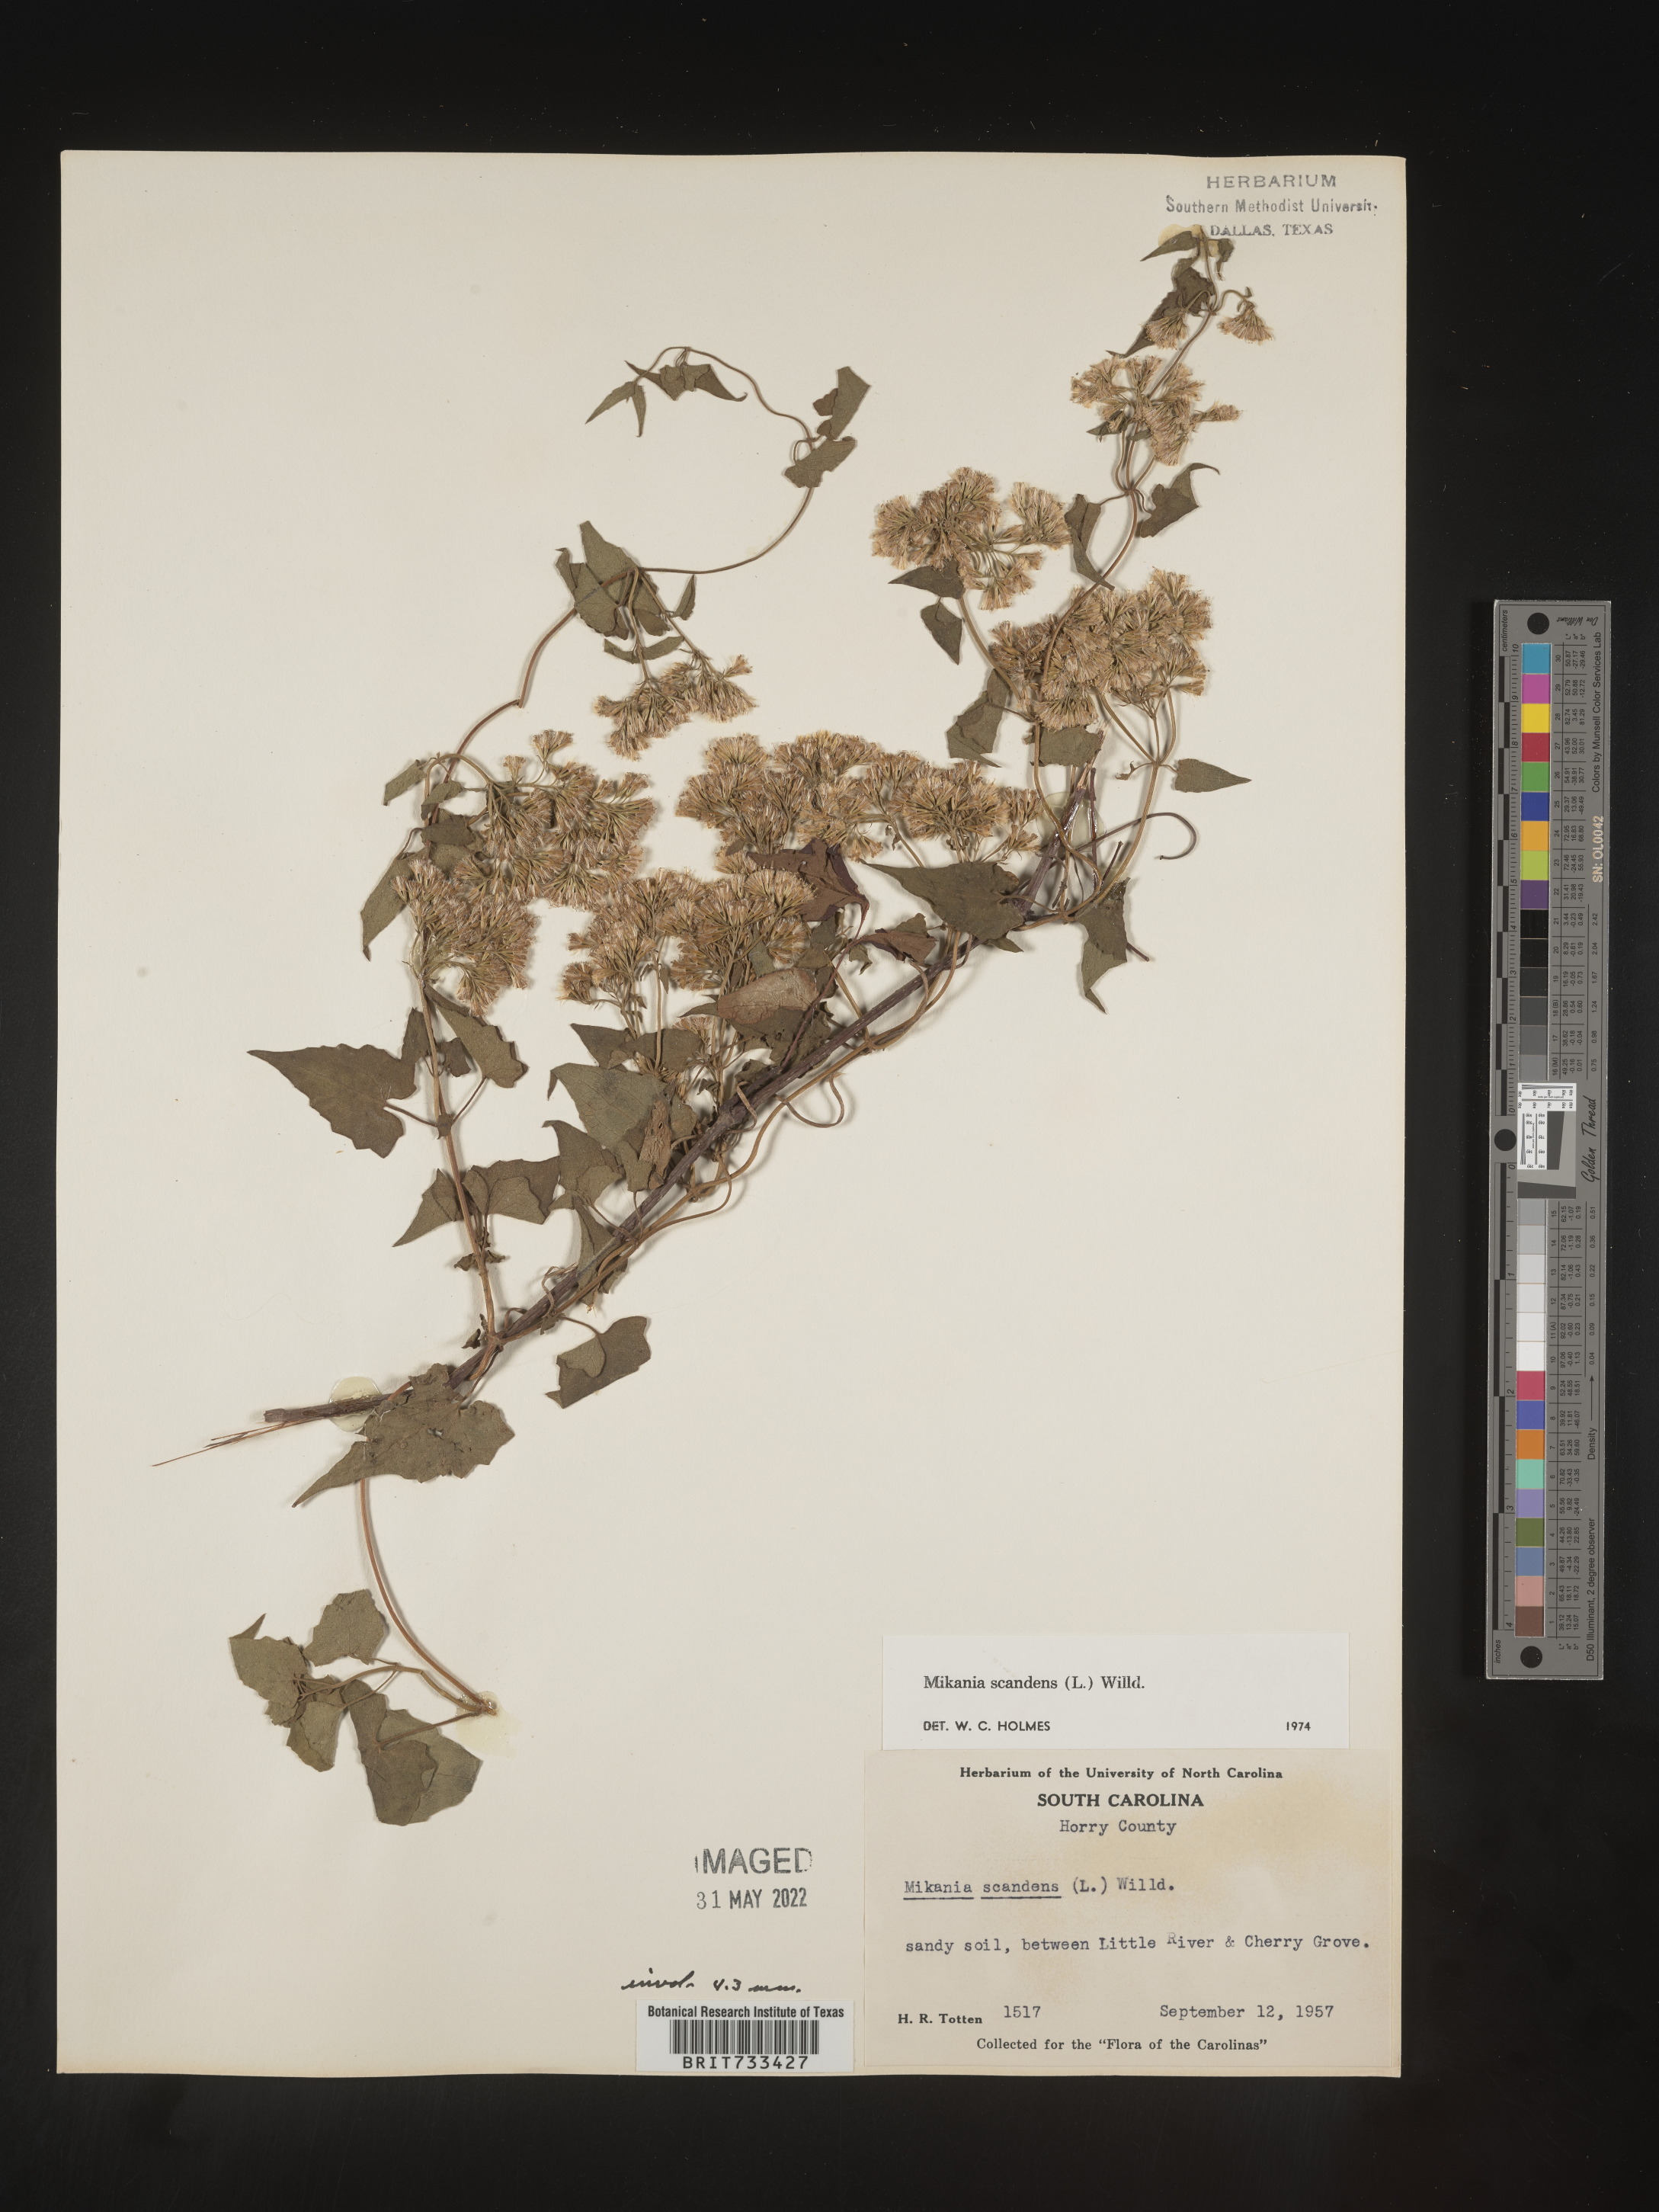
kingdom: Plantae
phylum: Tracheophyta
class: Magnoliopsida
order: Asterales
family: Asteraceae
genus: Mikania
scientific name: Mikania scandens
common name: Climbing hempvine
